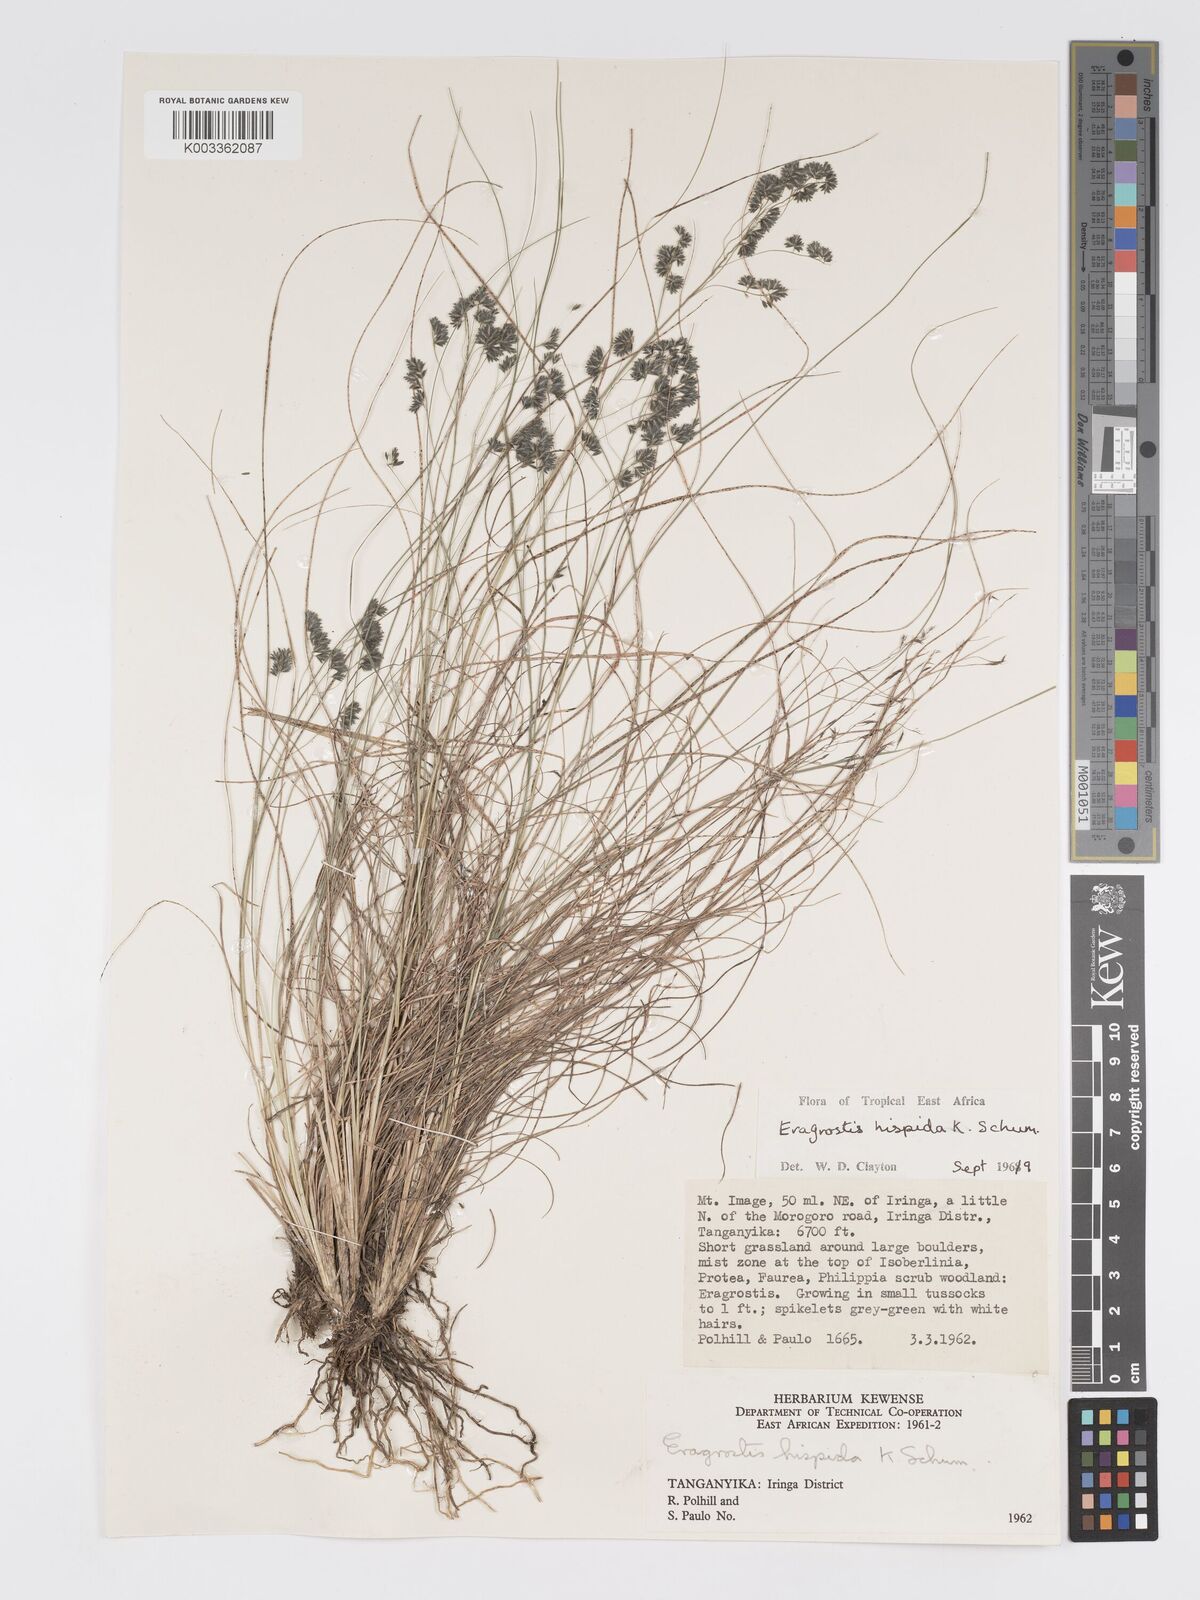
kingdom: Plantae
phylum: Tracheophyta
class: Liliopsida
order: Poales
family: Poaceae
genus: Eragrostis
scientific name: Eragrostis hispida
